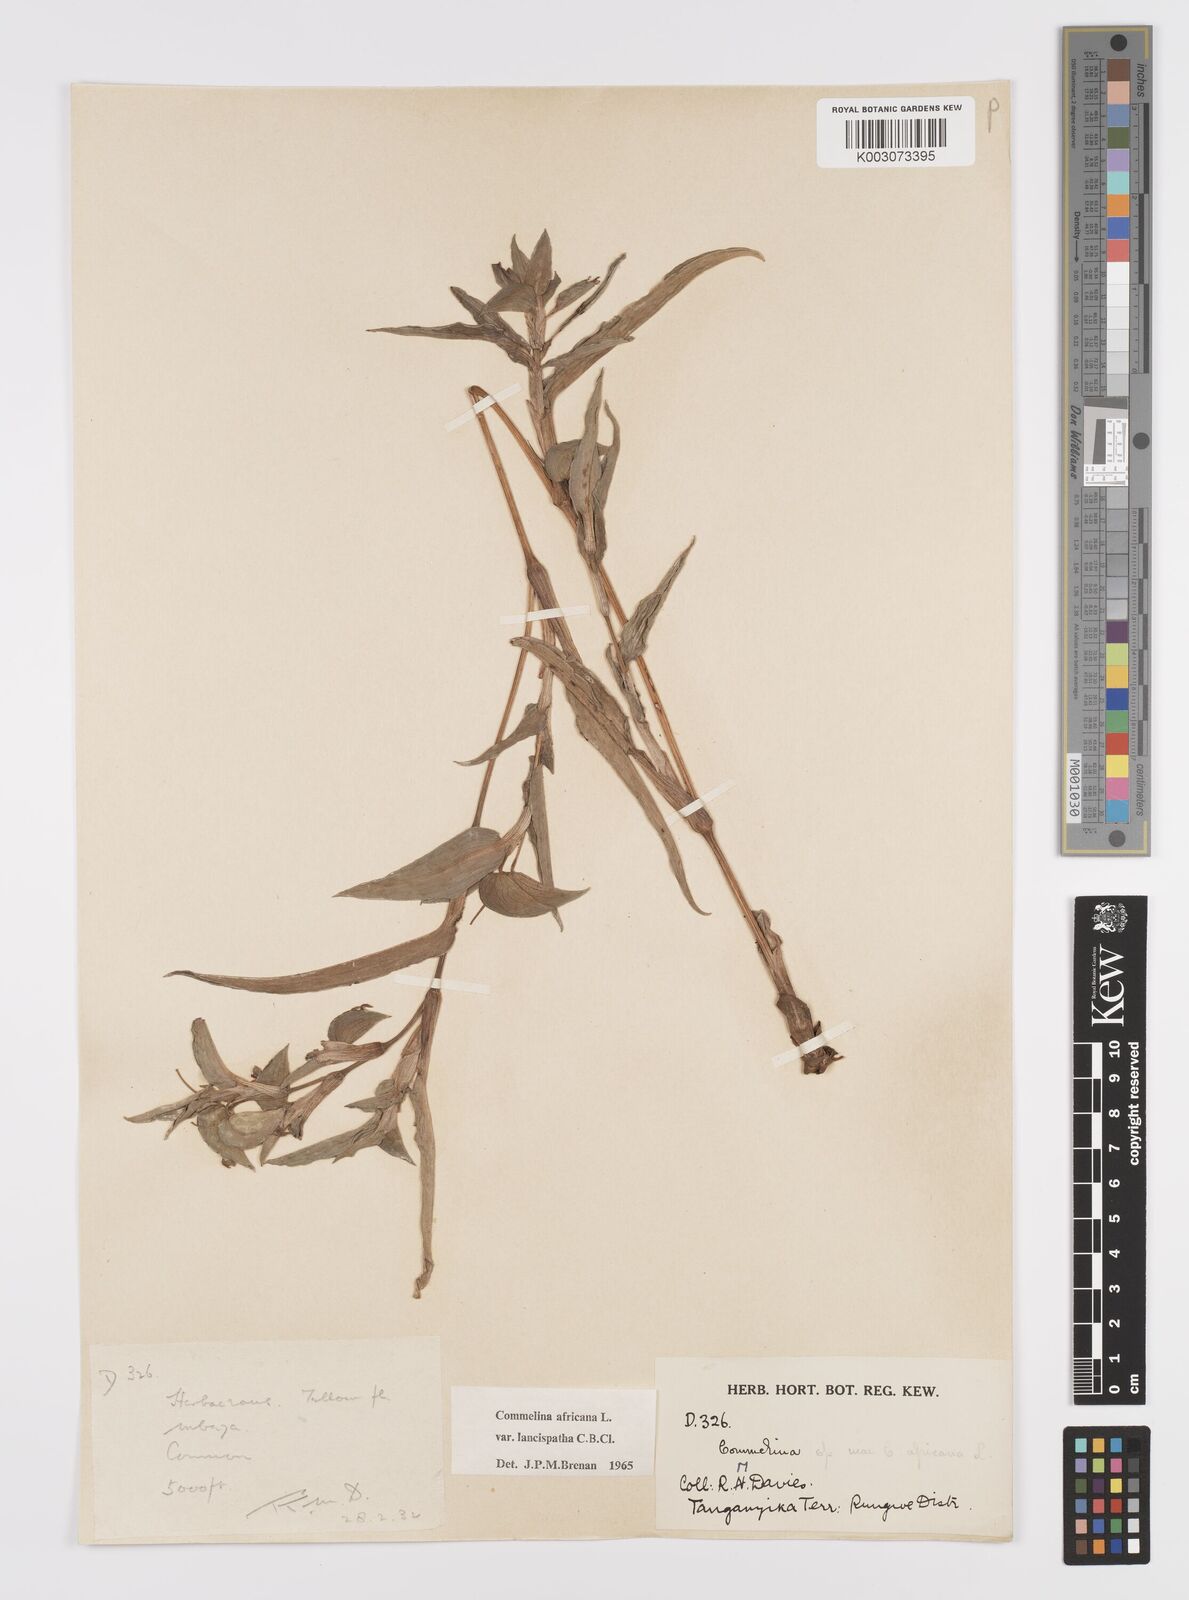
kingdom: Plantae
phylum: Tracheophyta
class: Liliopsida
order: Commelinales
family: Commelinaceae
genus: Commelina
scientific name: Commelina africana
